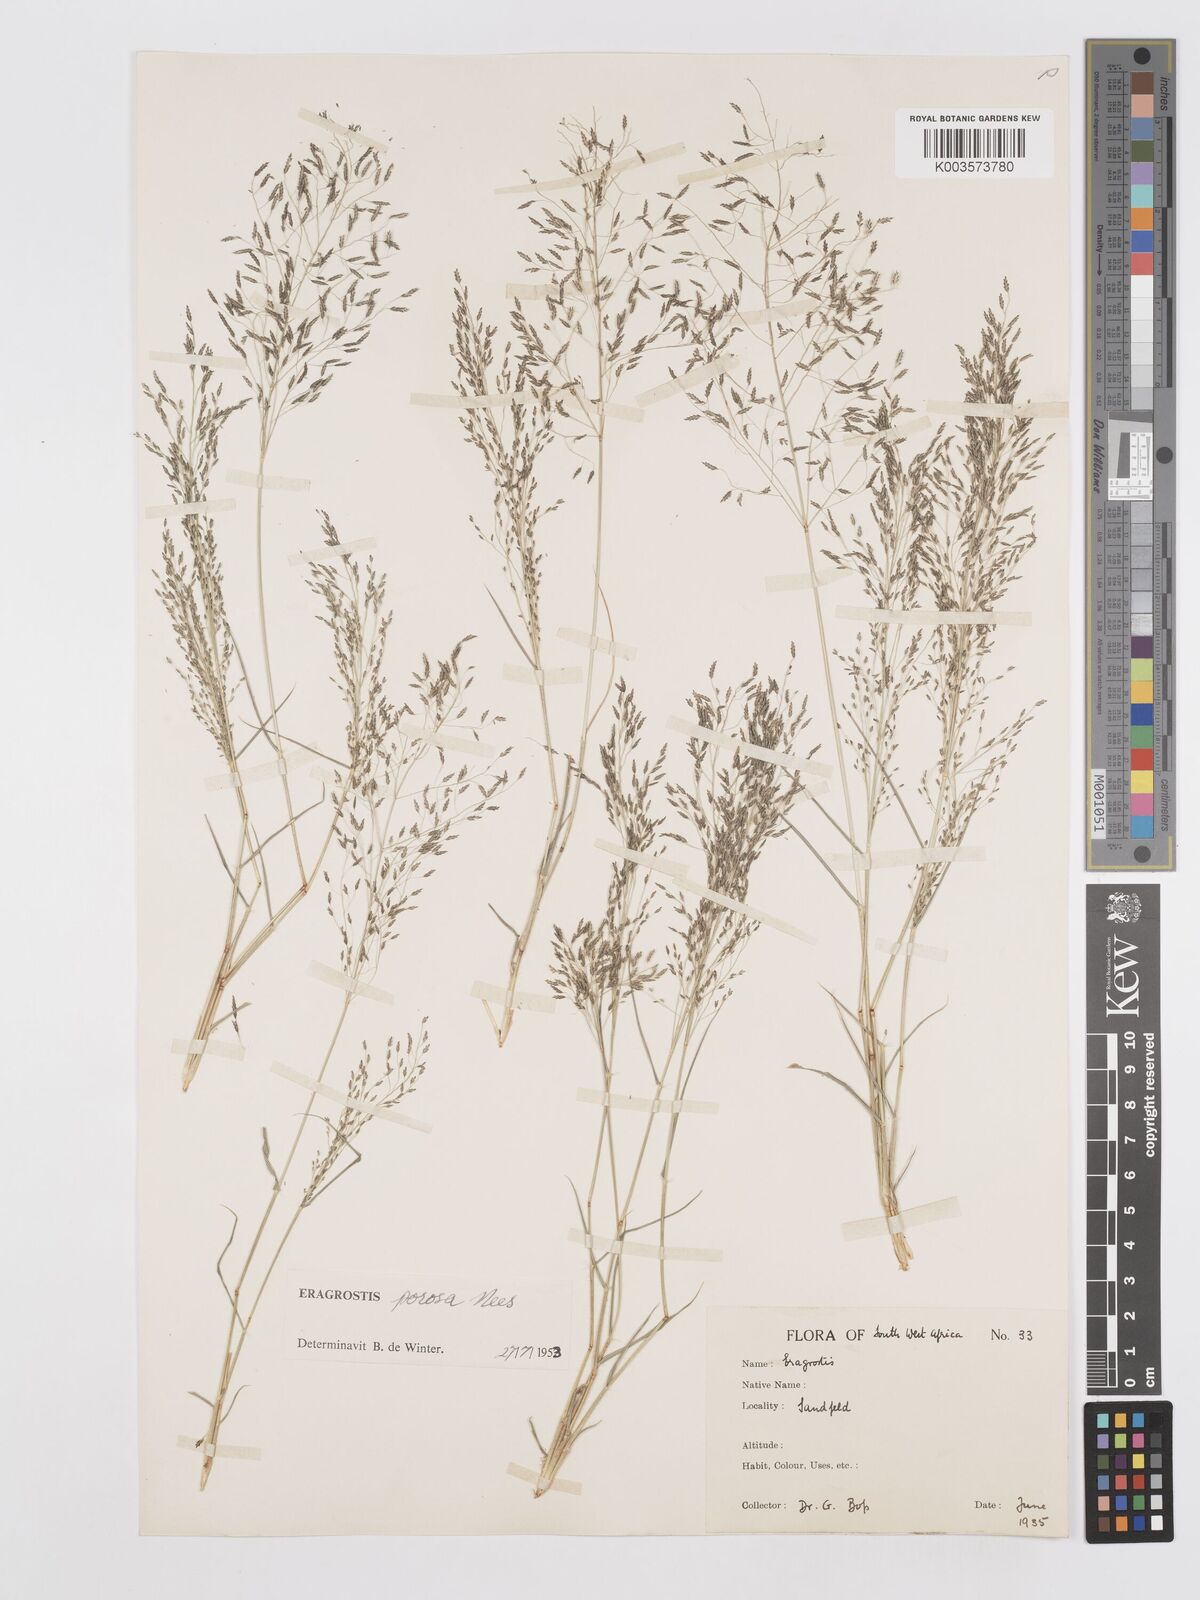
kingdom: Plantae
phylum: Tracheophyta
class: Liliopsida
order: Poales
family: Poaceae
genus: Eragrostis
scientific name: Eragrostis porosa
